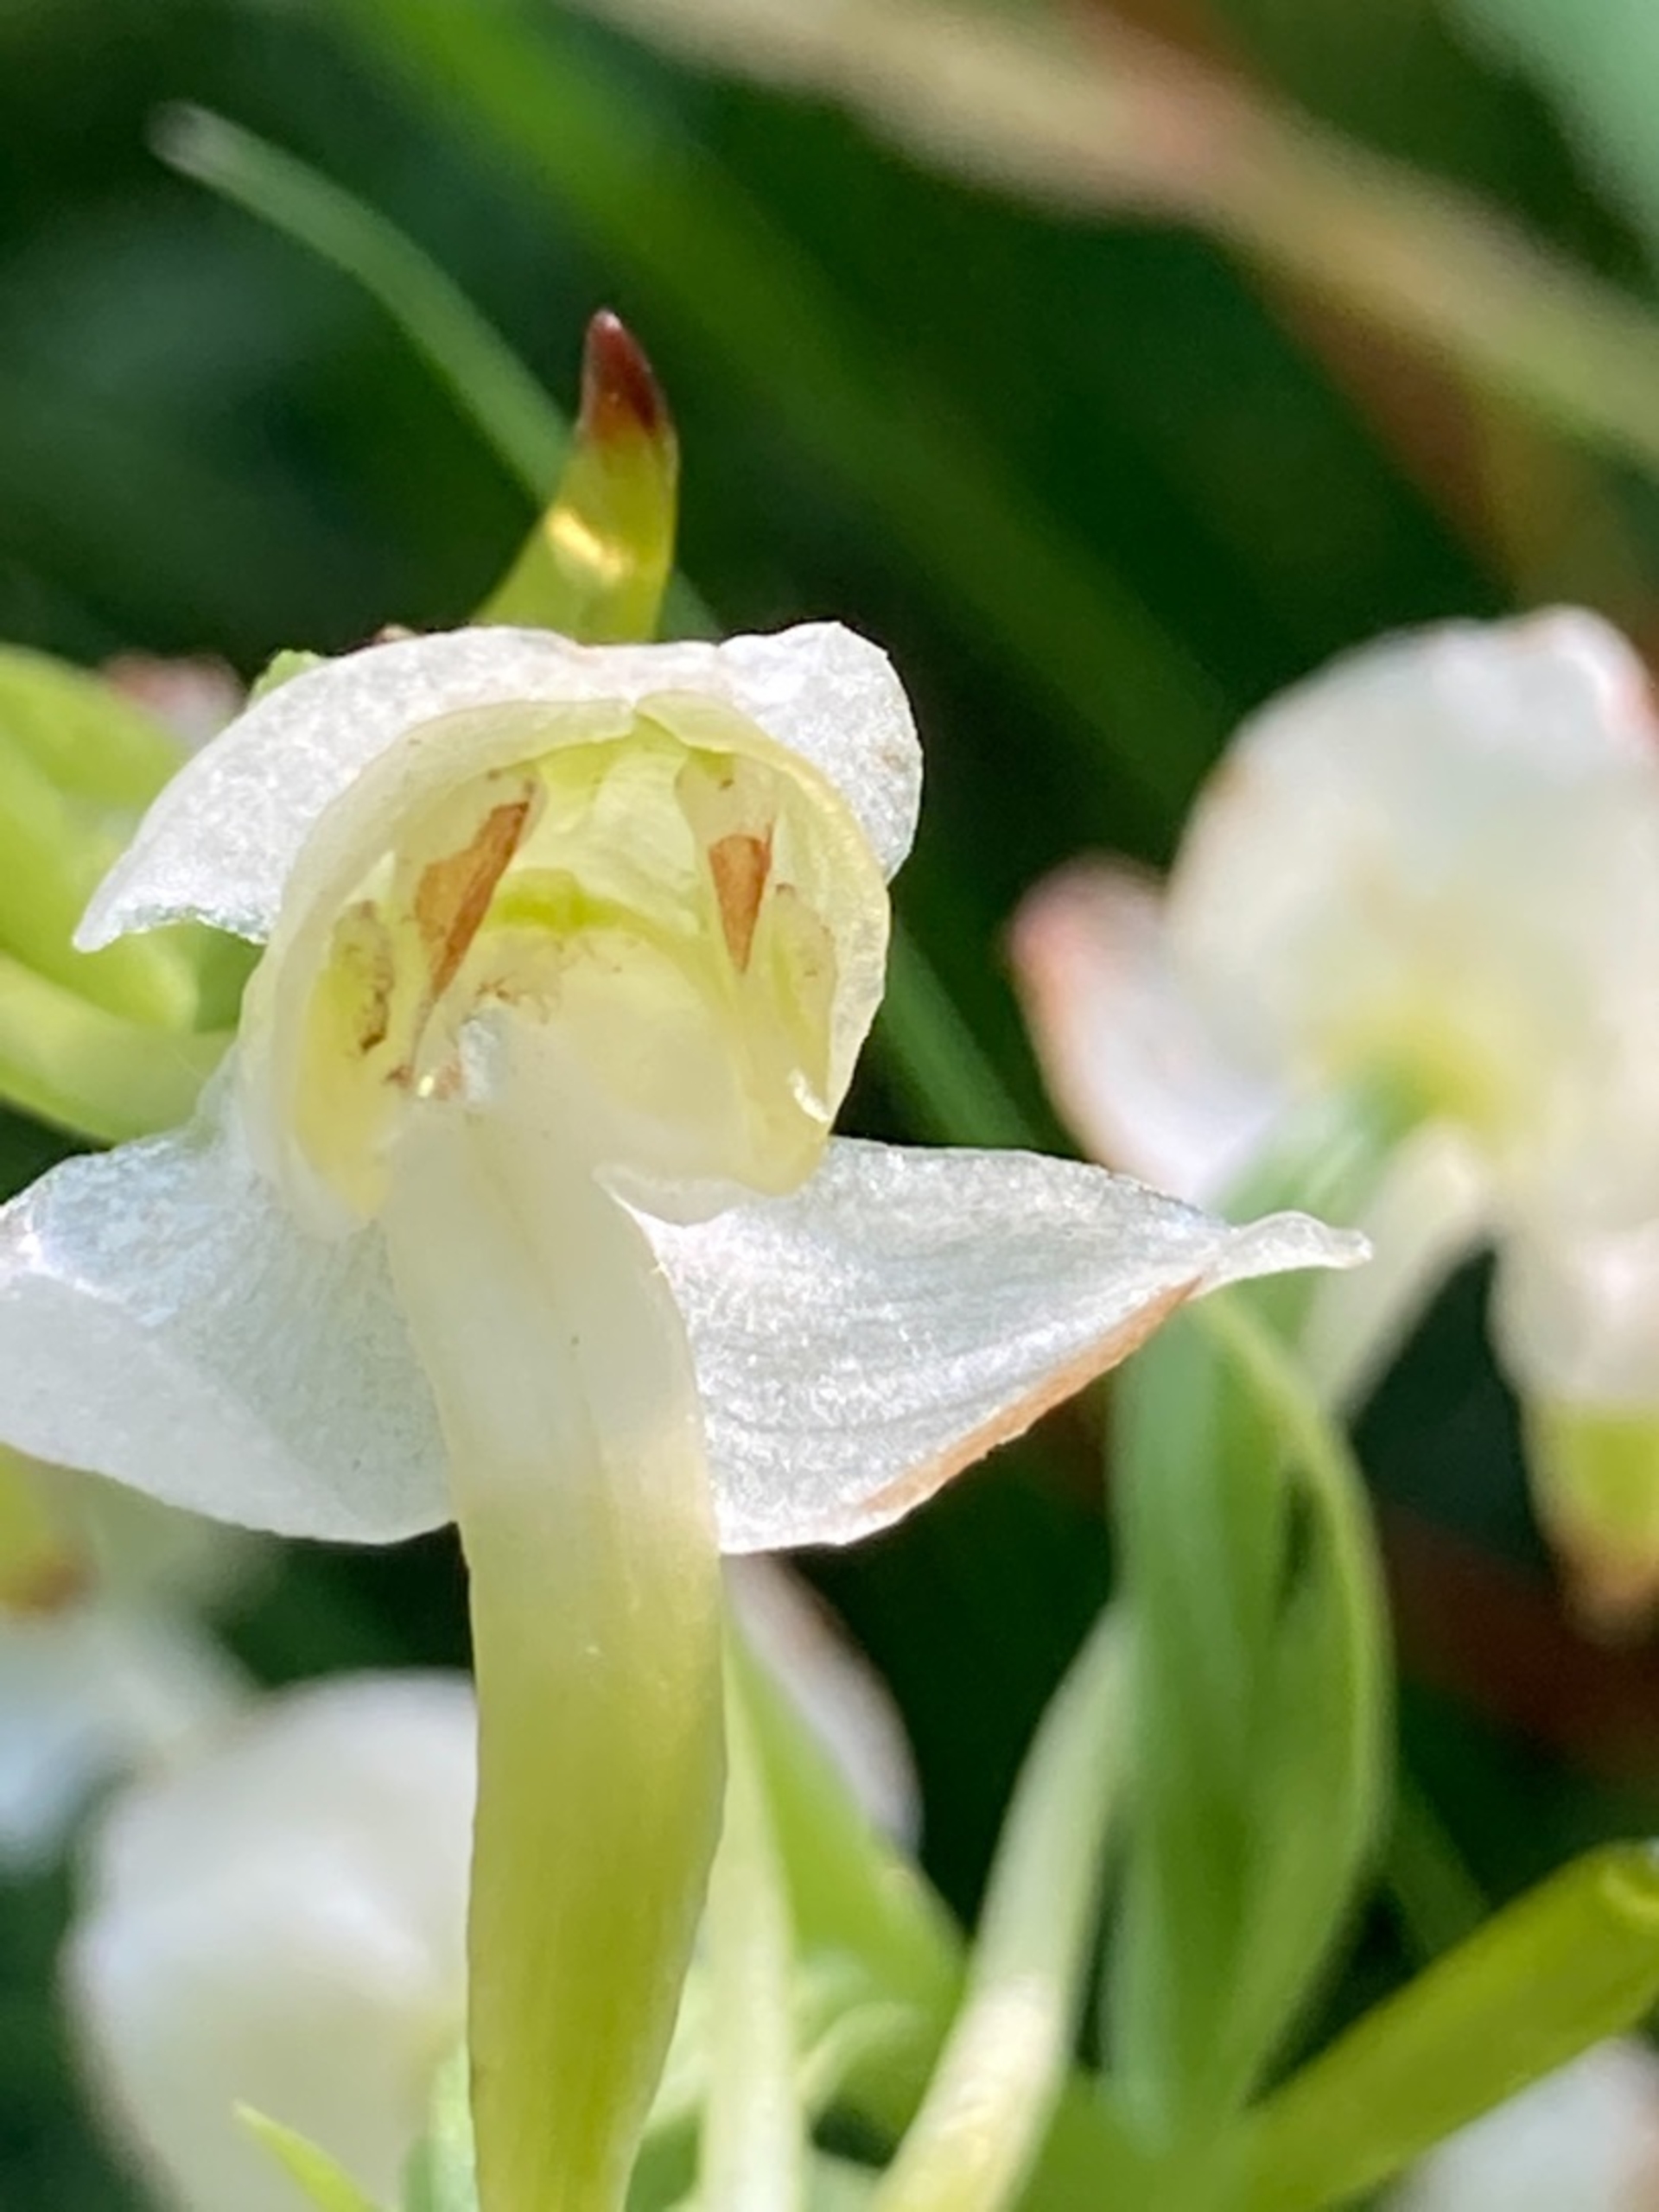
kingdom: Plantae
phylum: Tracheophyta
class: Liliopsida
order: Asparagales
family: Orchidaceae
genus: Platanthera
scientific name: Platanthera chlorantha
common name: Skov-gøgelilje
